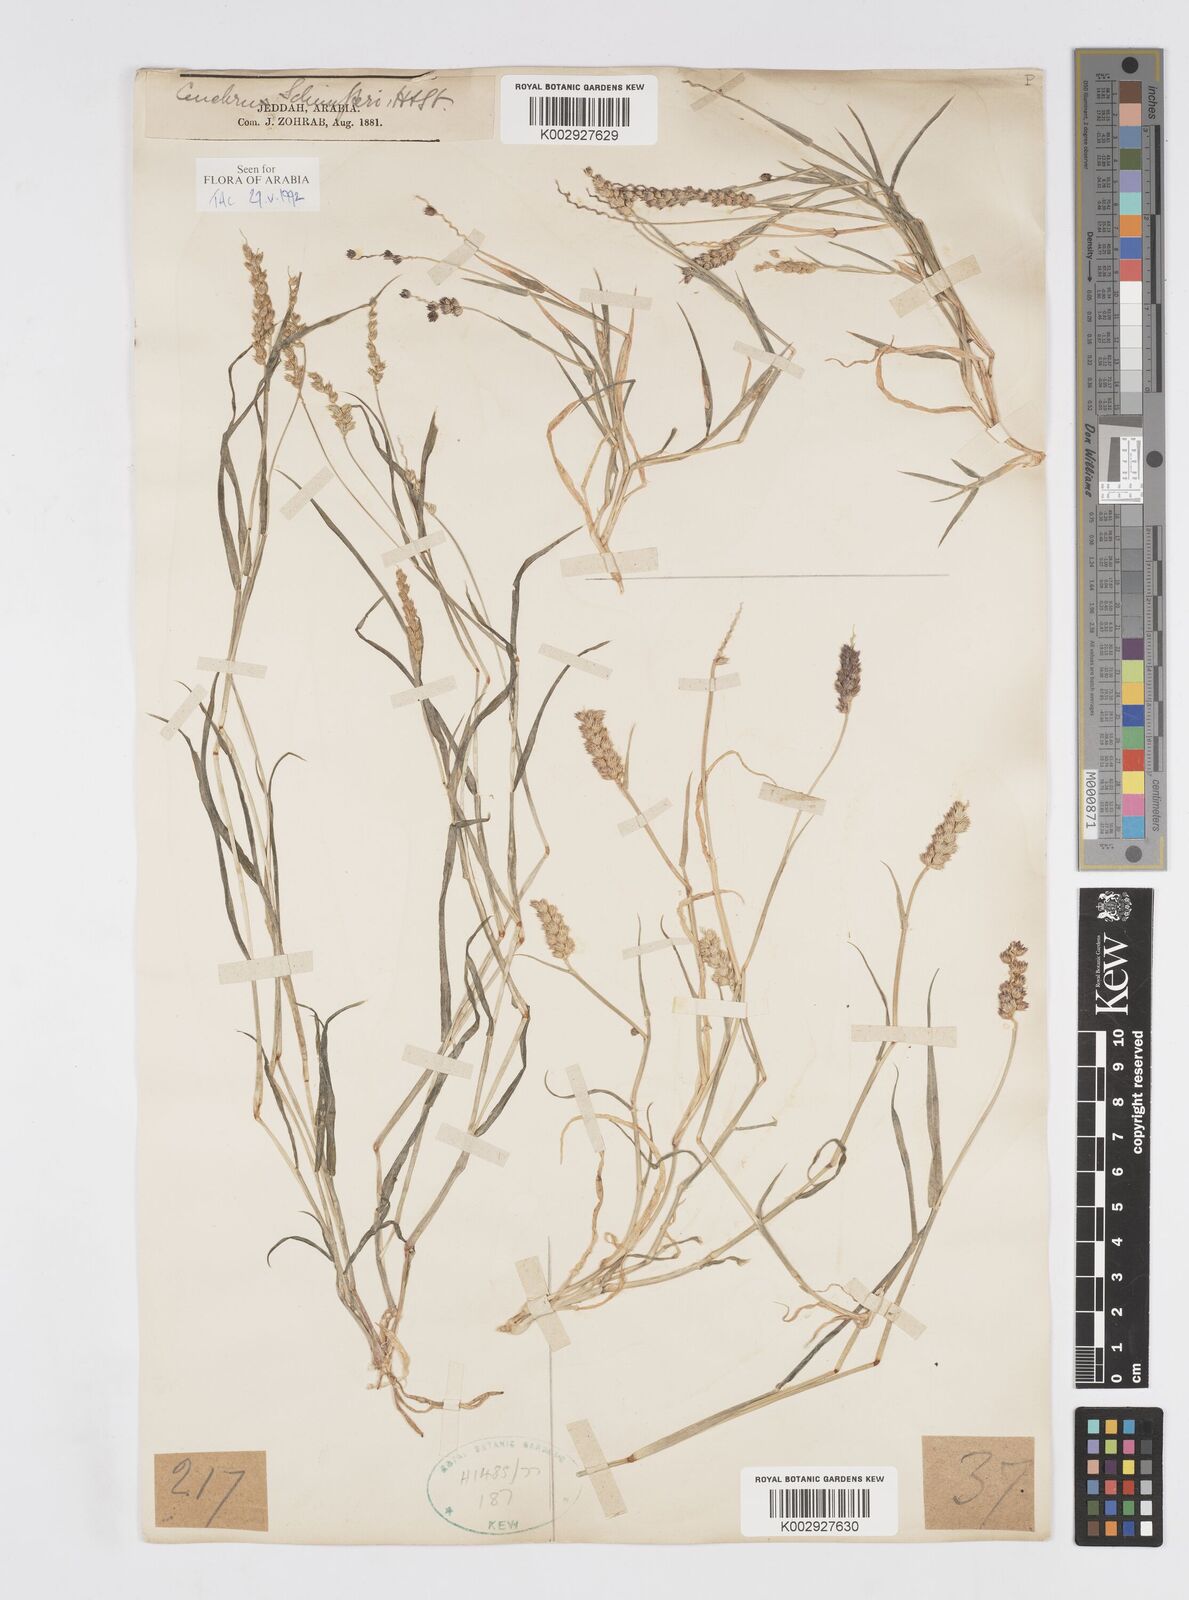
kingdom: Plantae
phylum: Tracheophyta
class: Liliopsida
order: Poales
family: Poaceae
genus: Cenchrus
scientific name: Cenchrus setigerus
